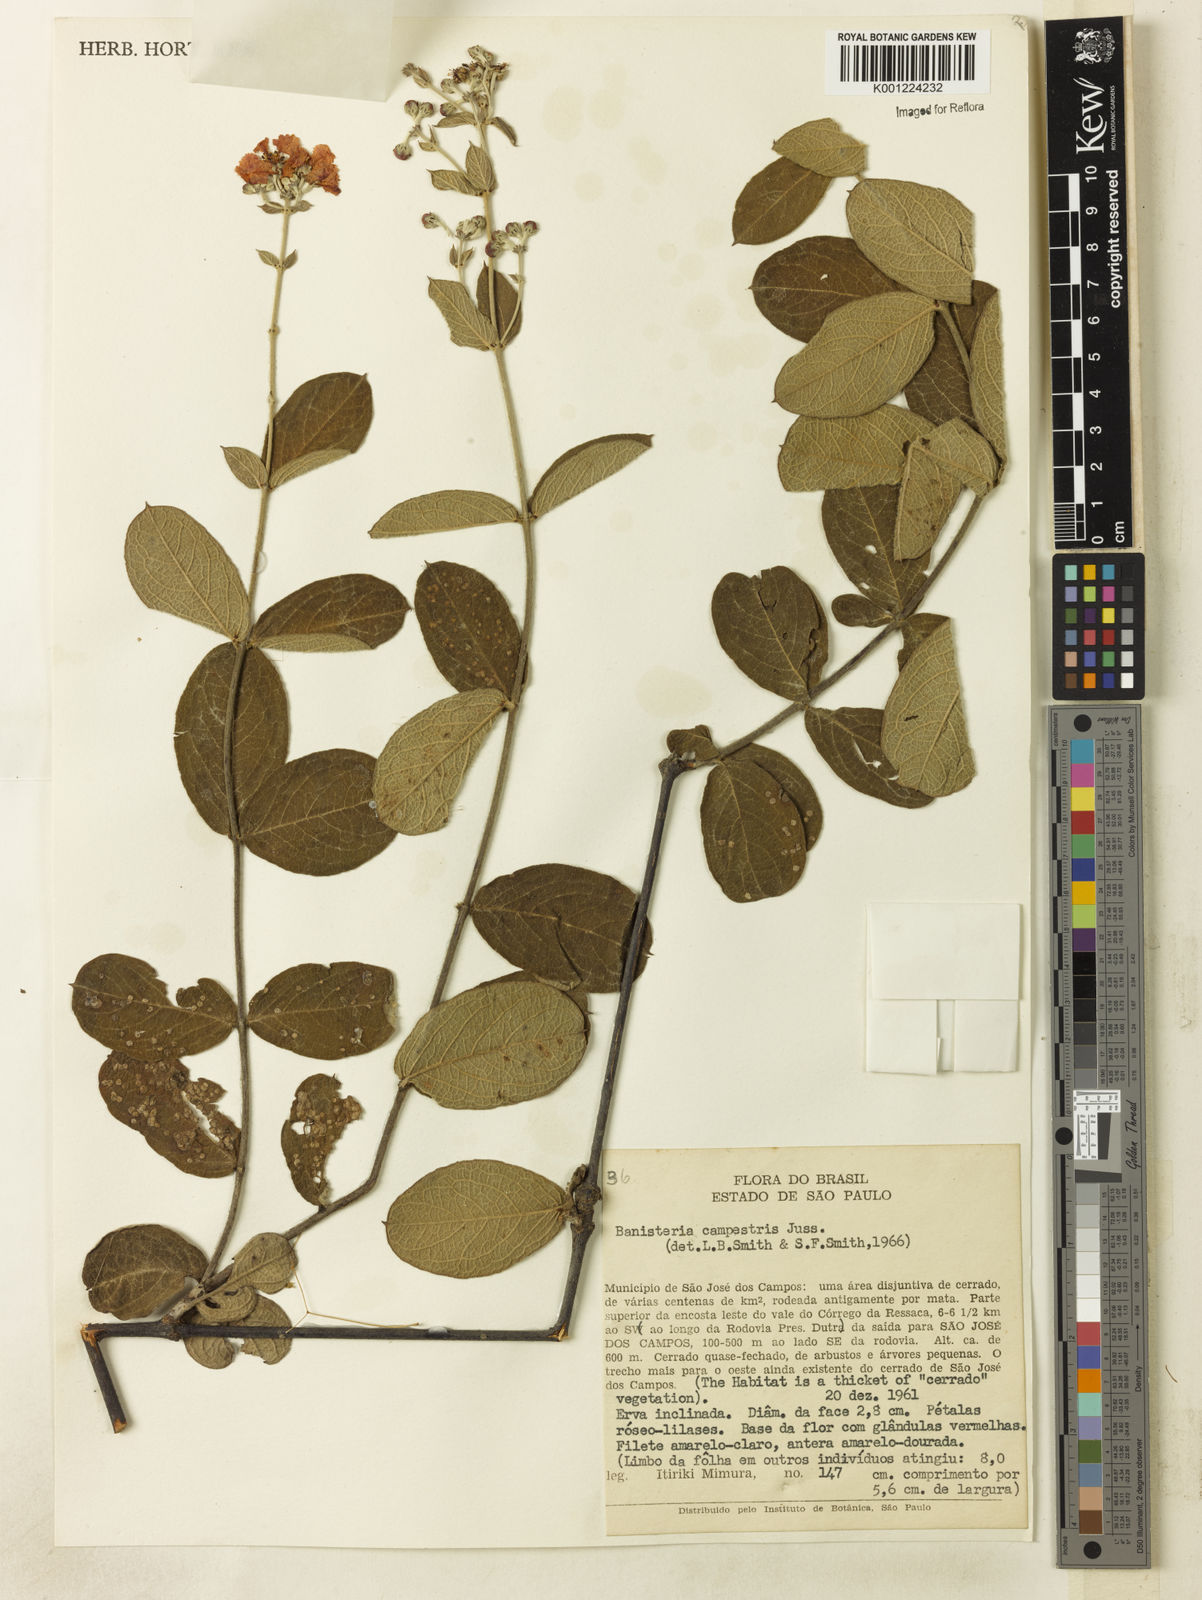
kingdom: Plantae
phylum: Tracheophyta
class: Magnoliopsida
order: Malpighiales
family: Malpighiaceae
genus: Banisteriopsis
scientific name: Banisteriopsis campestris
